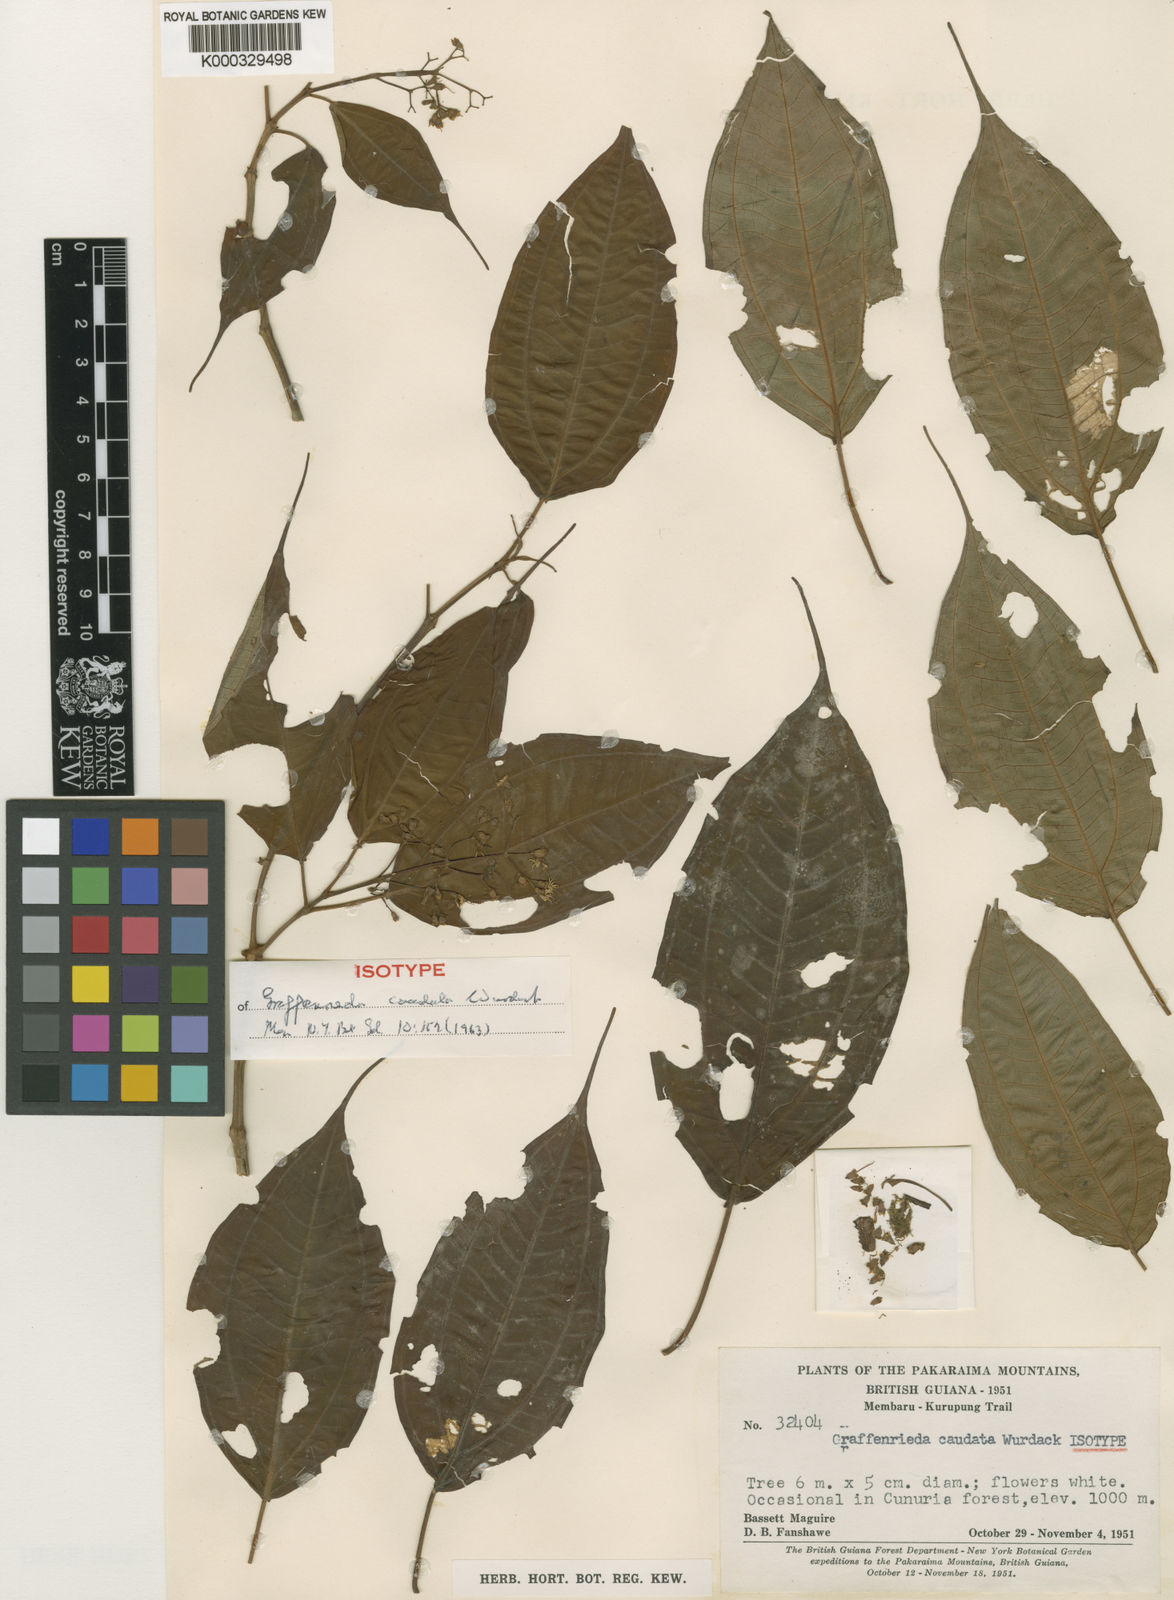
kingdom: Plantae
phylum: Tracheophyta
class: Magnoliopsida
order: Myrtales
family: Melastomataceae
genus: Graffenrieda
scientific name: Graffenrieda caudata
